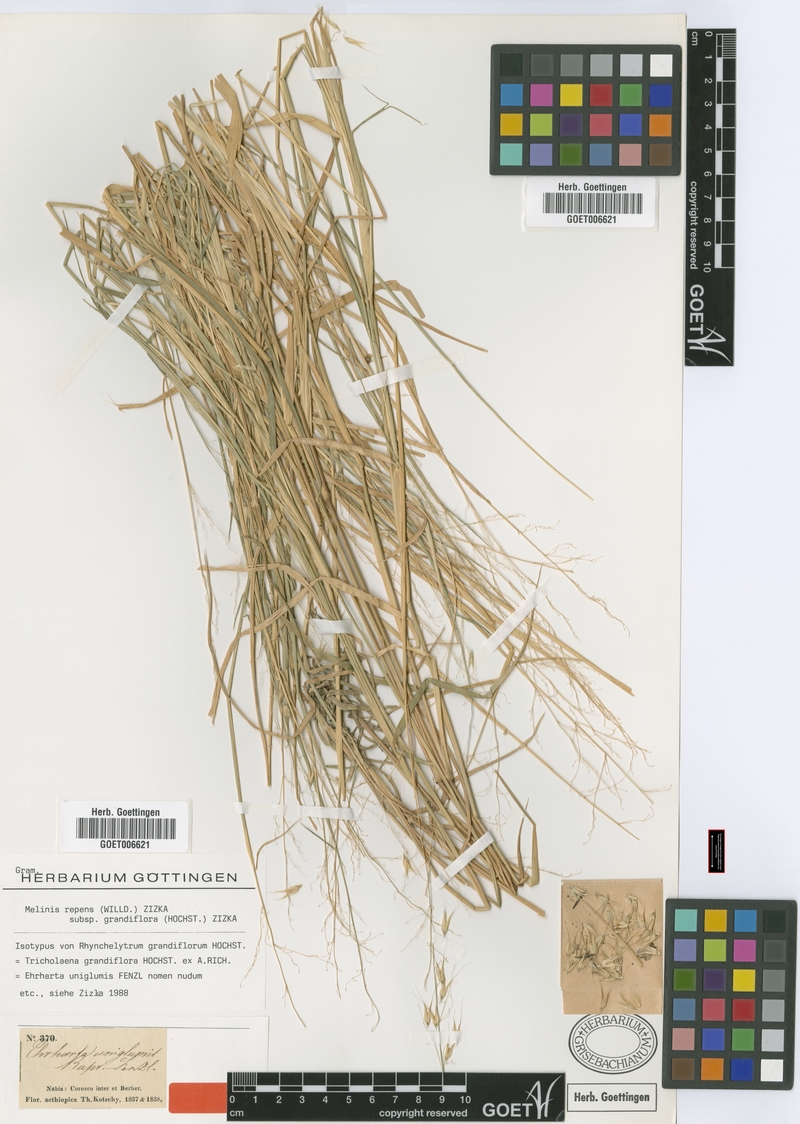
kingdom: Plantae
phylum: Tracheophyta
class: Liliopsida
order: Poales
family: Poaceae
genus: Melinis
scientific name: Melinis repens
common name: Rose natal grass
